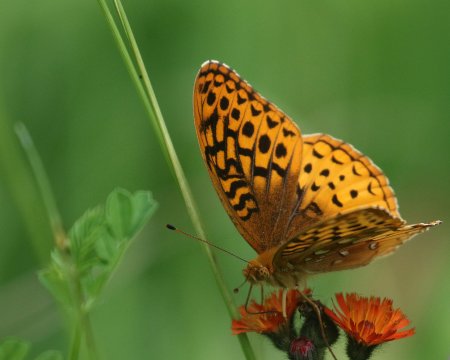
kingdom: Animalia
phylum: Arthropoda
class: Insecta
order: Lepidoptera
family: Nymphalidae
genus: Speyeria
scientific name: Speyeria cybele
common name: Great Spangled Fritillary
